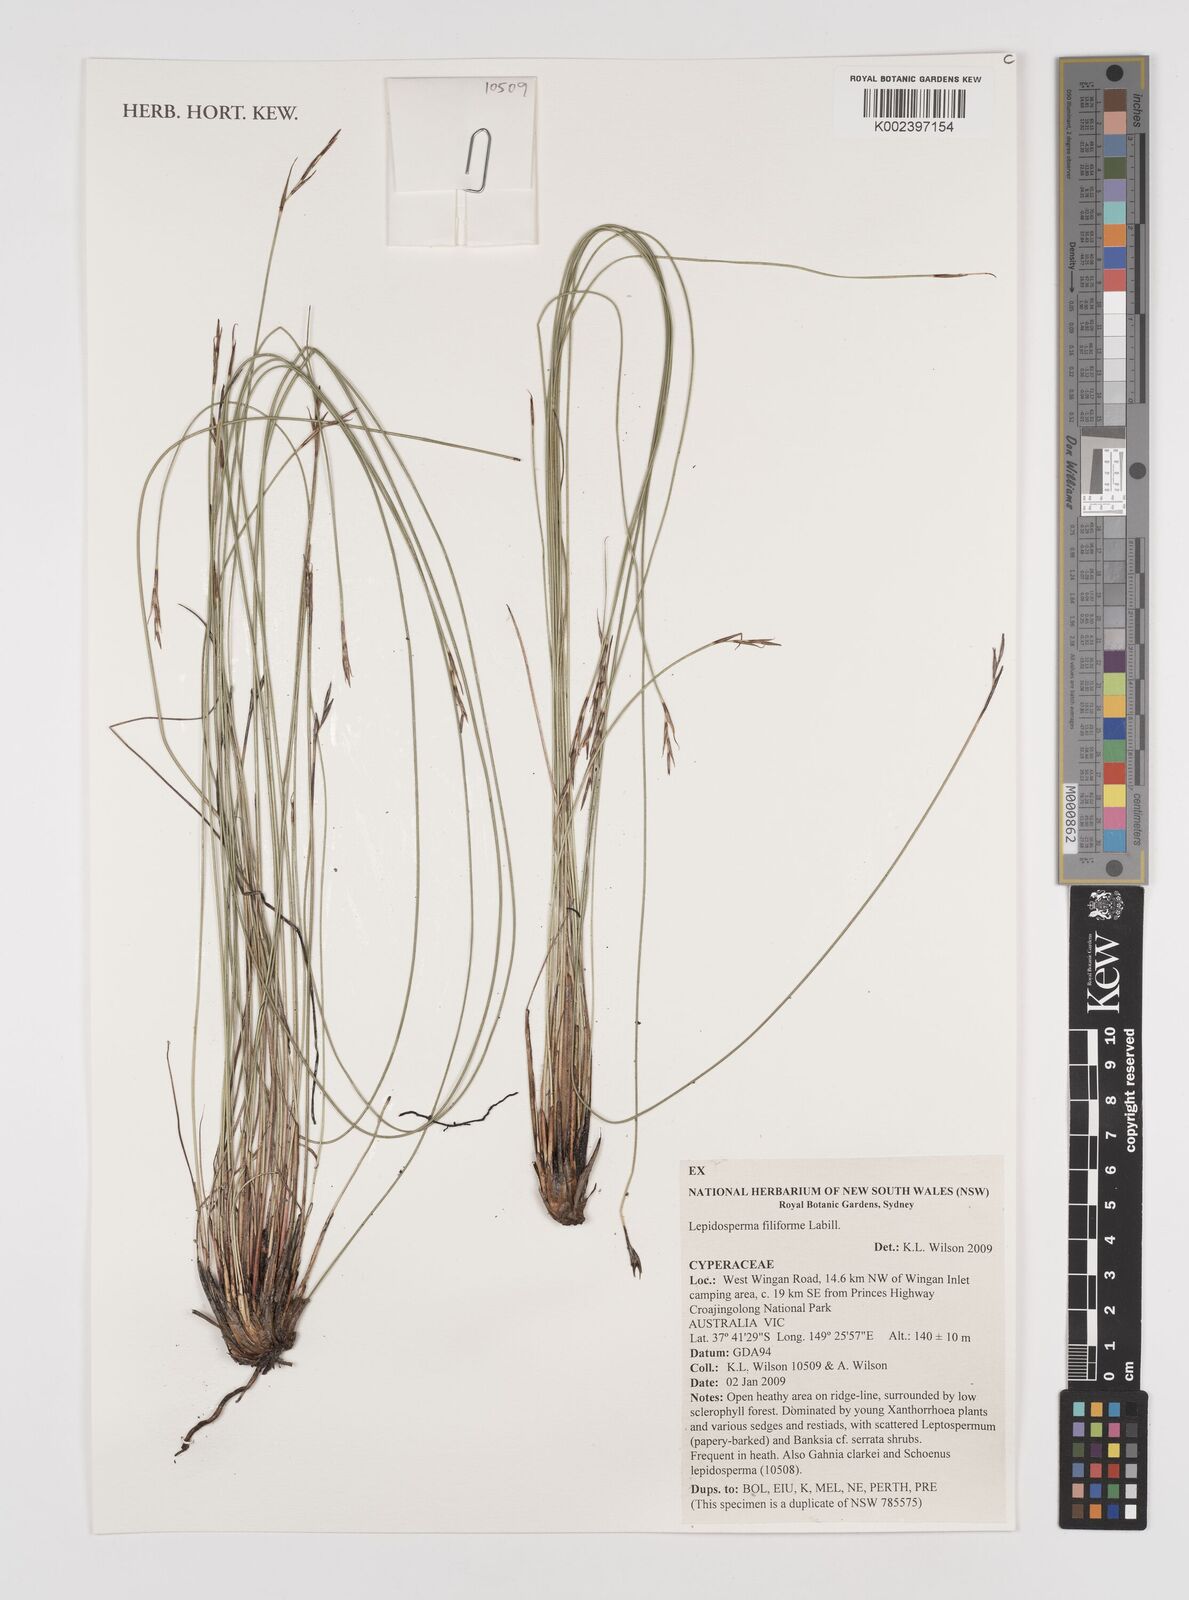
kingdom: Plantae
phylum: Tracheophyta
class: Liliopsida
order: Poales
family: Cyperaceae
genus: Lepidosperma
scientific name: Lepidosperma filiforme
